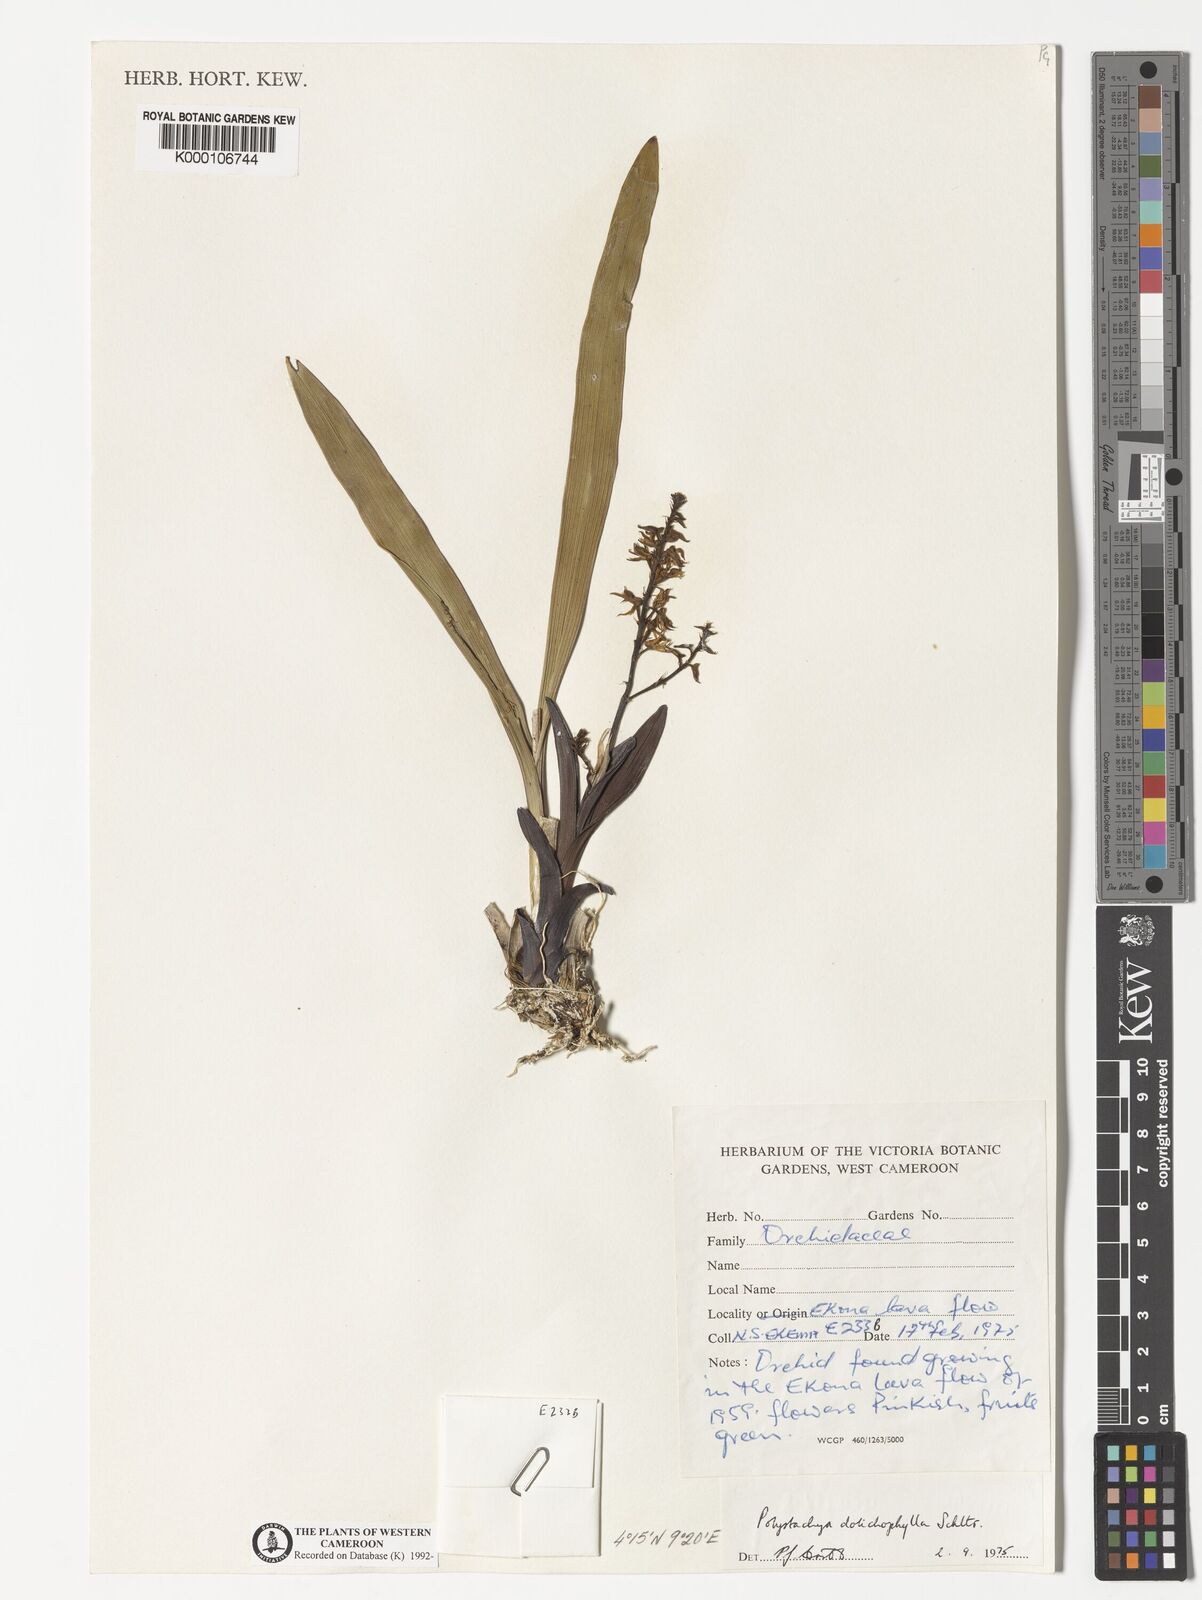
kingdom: Plantae
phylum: Tracheophyta
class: Liliopsida
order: Asparagales
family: Orchidaceae
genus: Polystachya
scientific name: Polystachya dolichophylla
